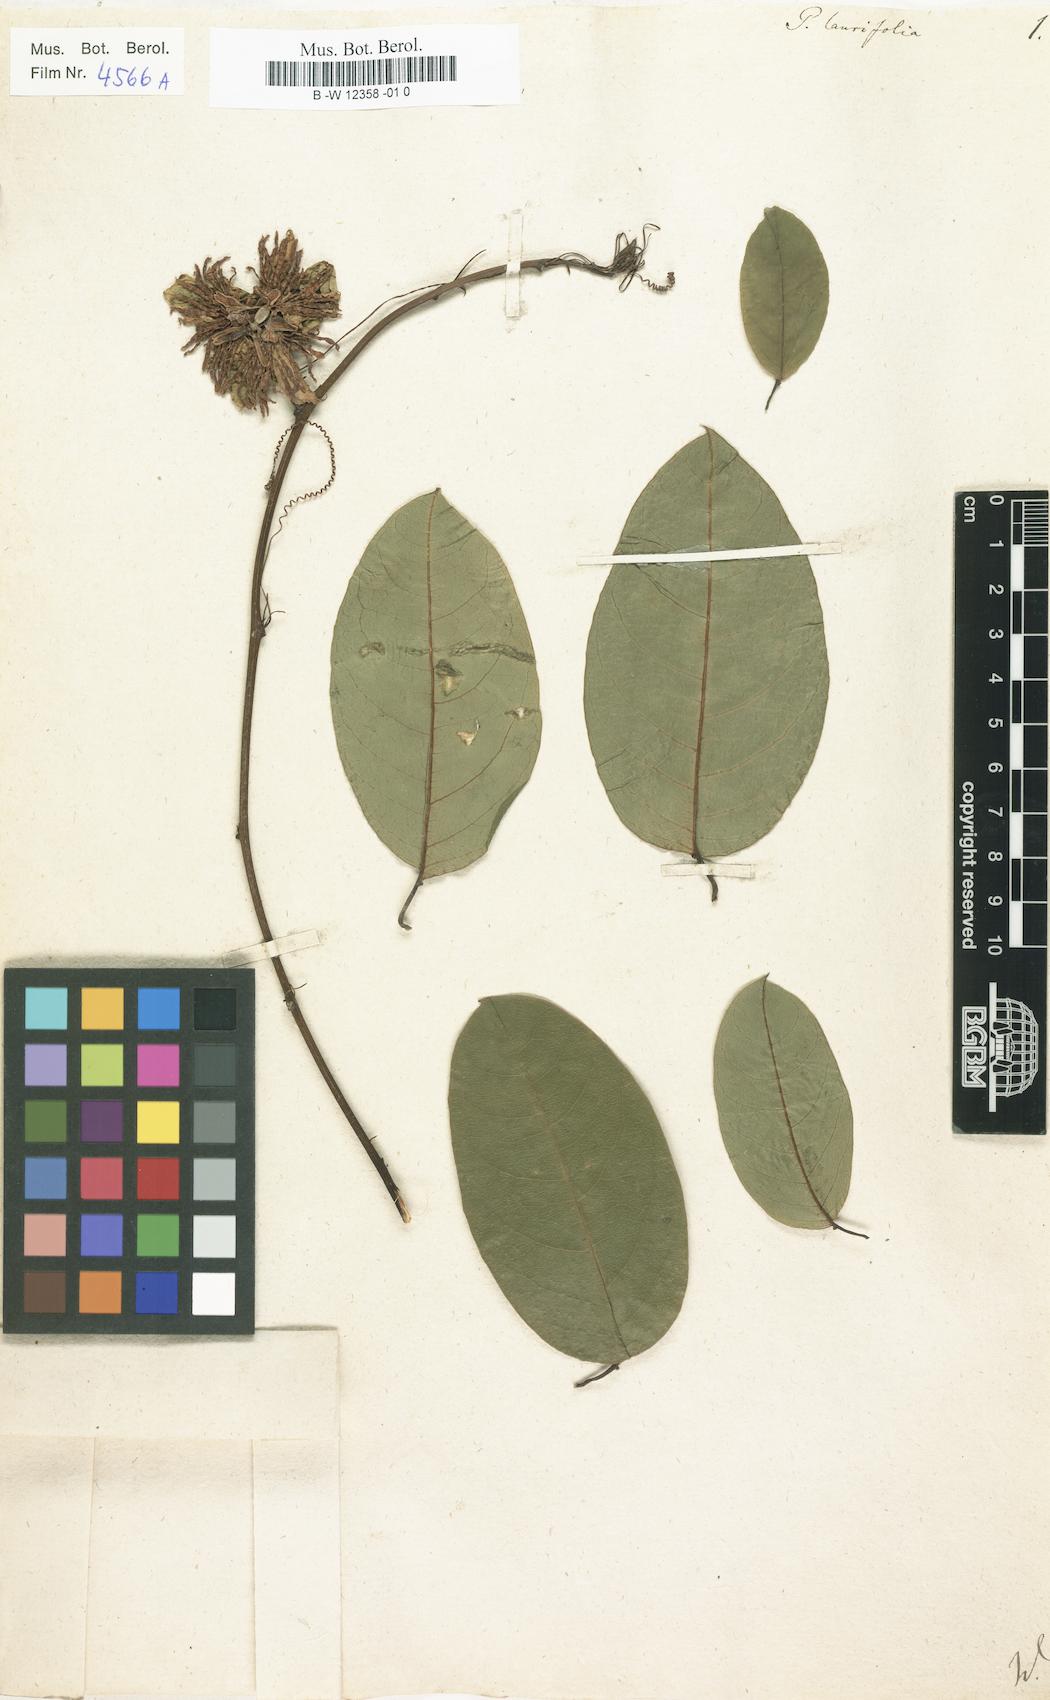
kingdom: Plantae
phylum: Tracheophyta
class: Magnoliopsida
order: Malpighiales
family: Passifloraceae
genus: Passiflora
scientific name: Passiflora laurifolia
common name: Bell apple
